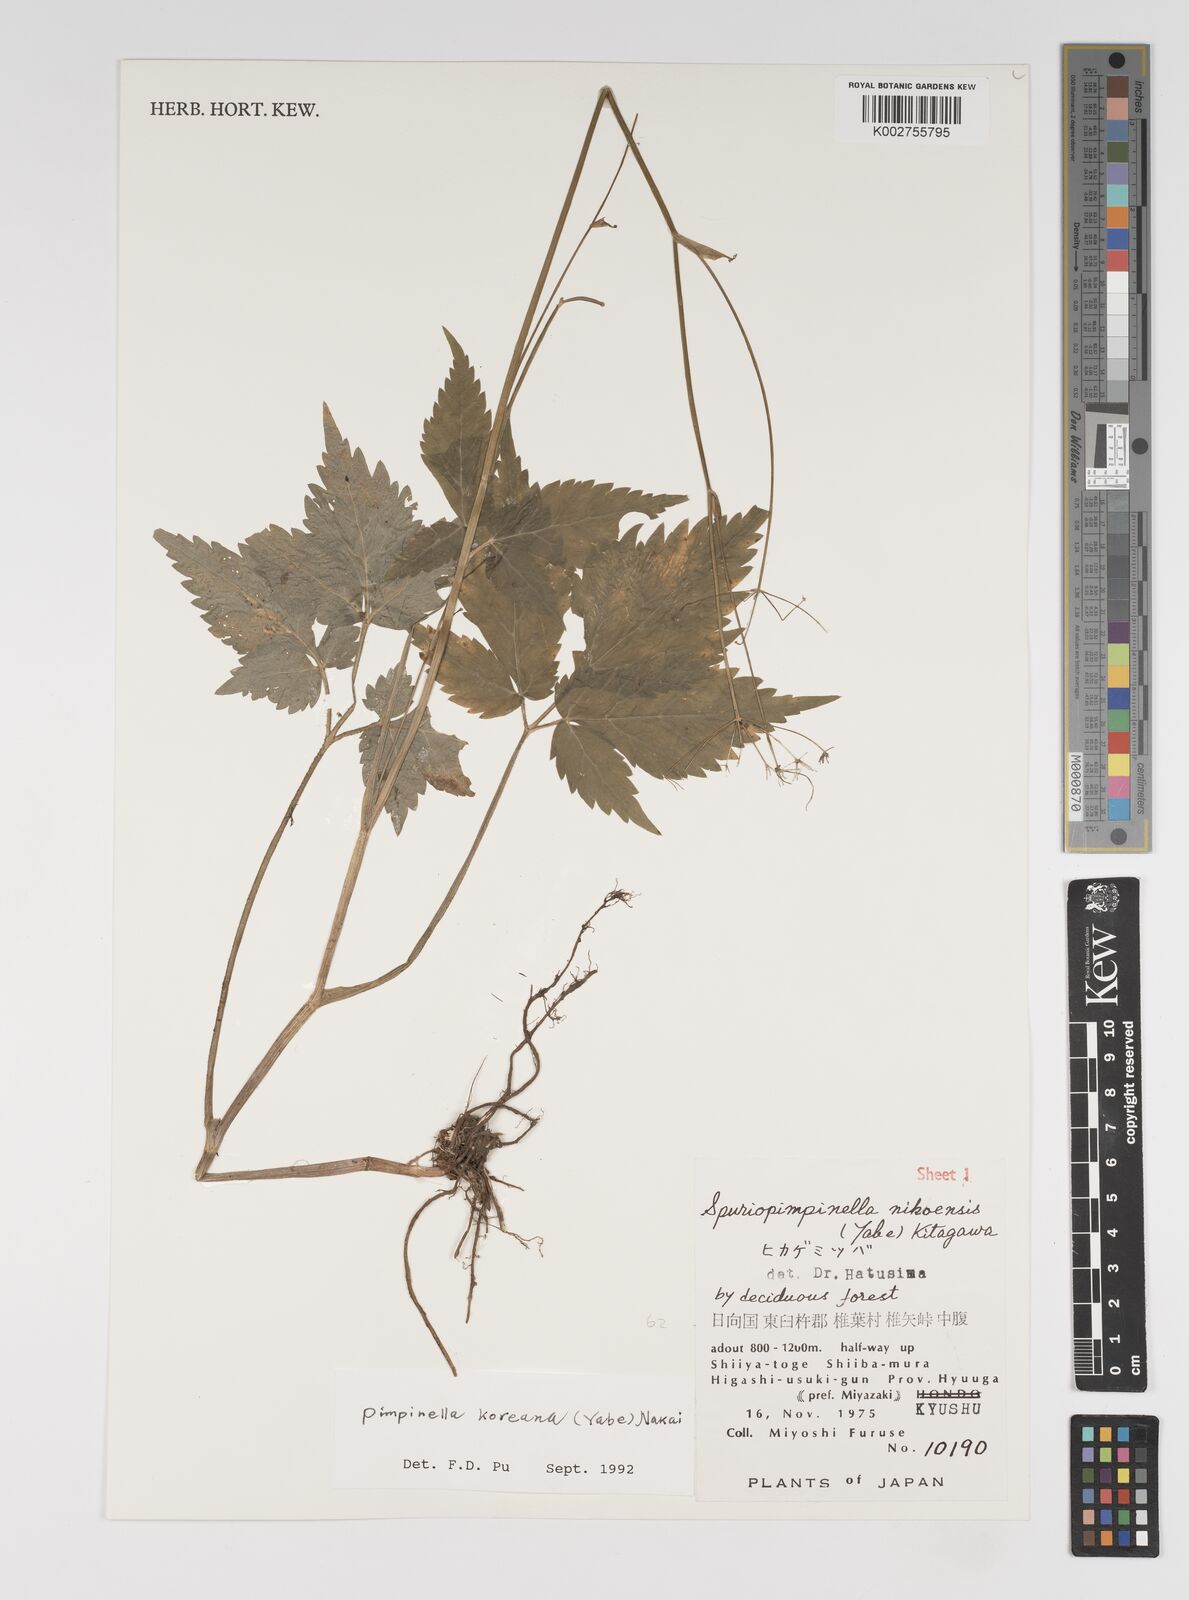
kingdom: Plantae
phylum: Tracheophyta
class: Magnoliopsida
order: Apiales
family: Apiaceae
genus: Spuriopimpinella
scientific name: Spuriopimpinella brachycarpa
